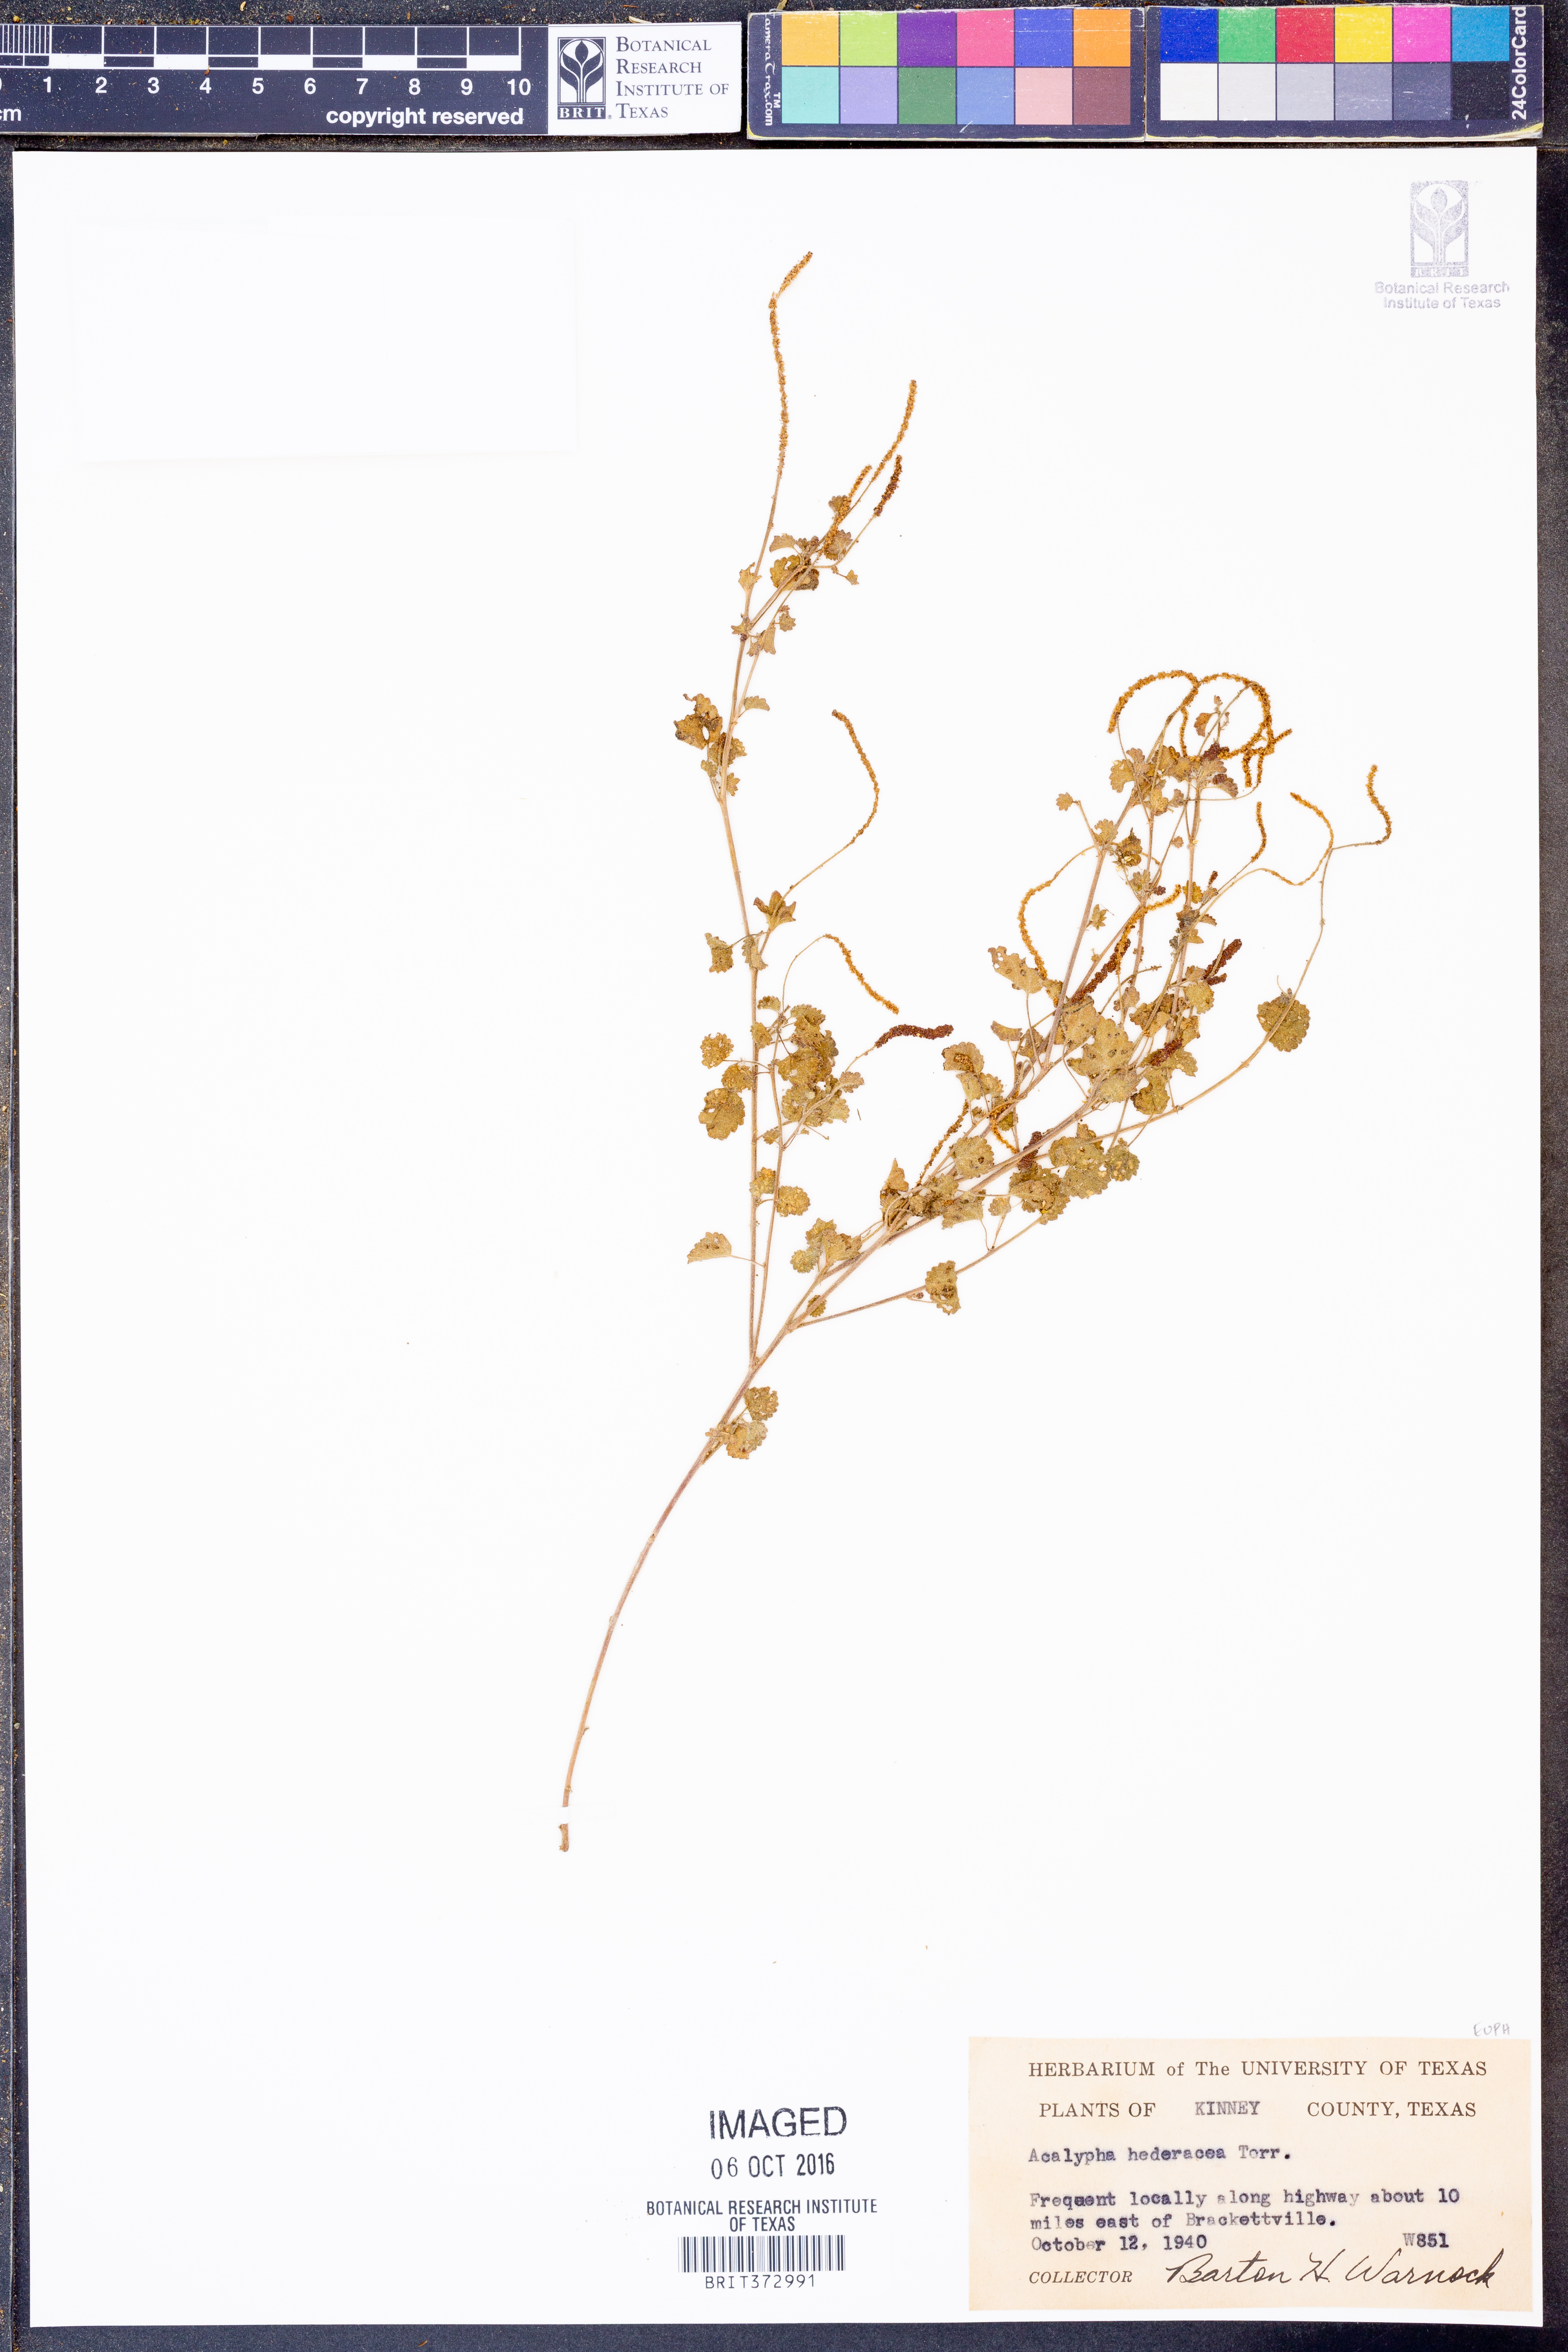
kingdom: Plantae
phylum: Tracheophyta
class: Magnoliopsida
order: Malpighiales
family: Euphorbiaceae
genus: Acalypha
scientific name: Acalypha monostachya
